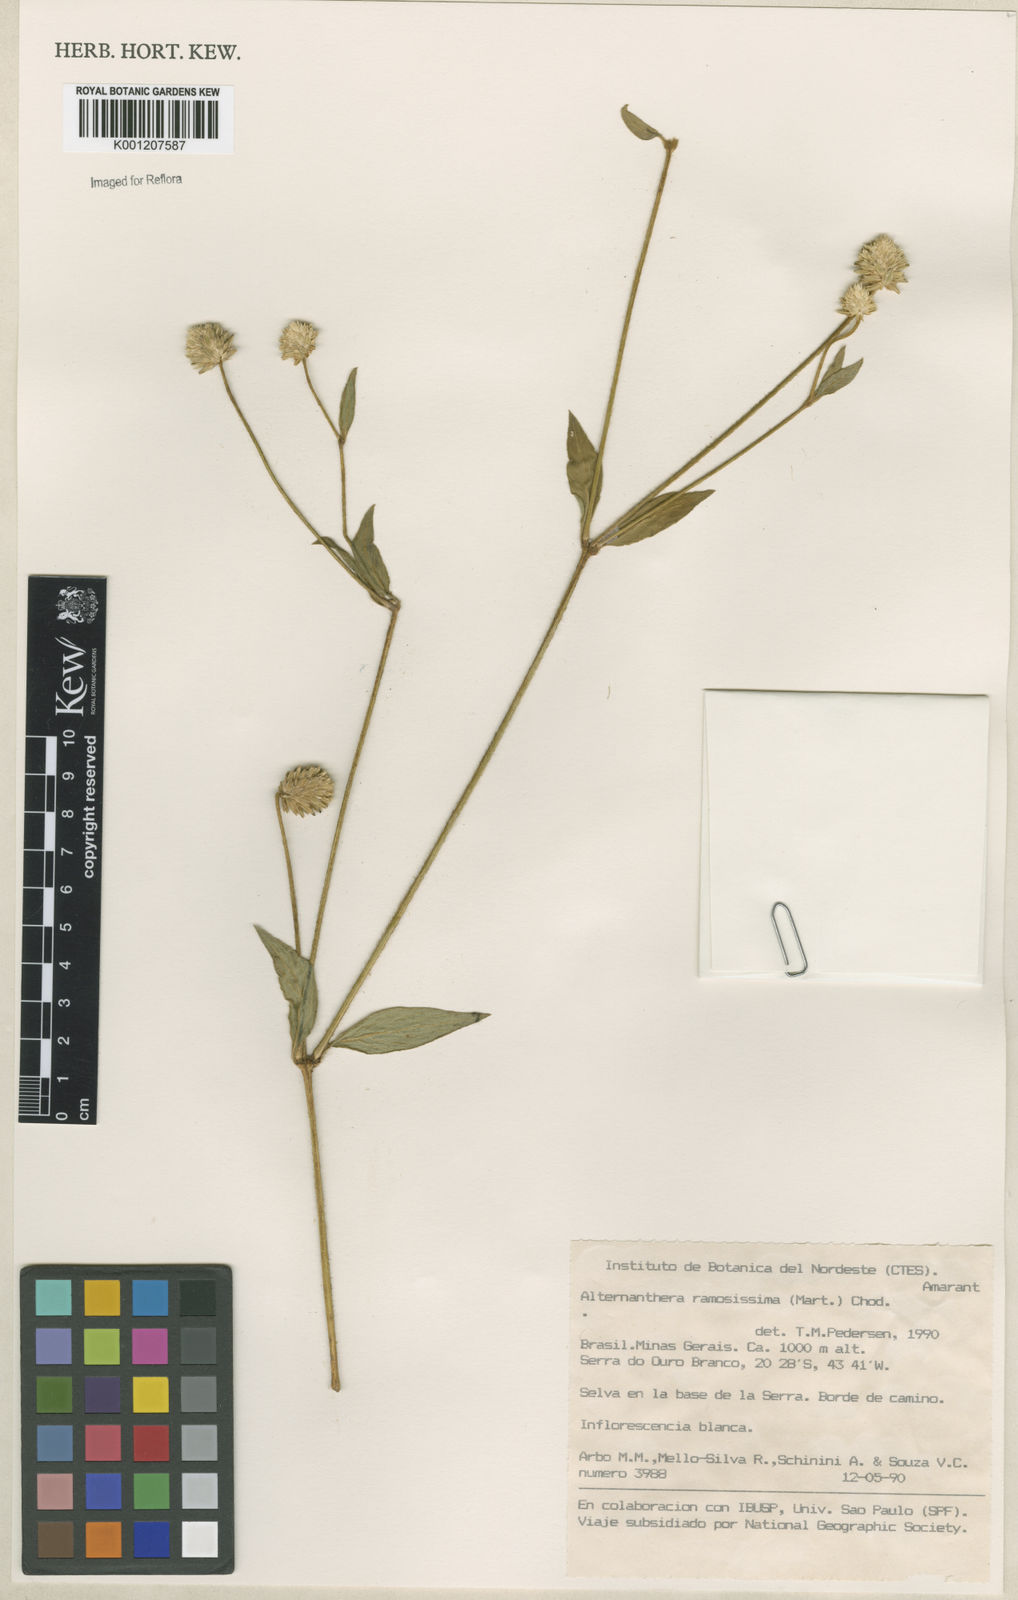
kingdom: Plantae
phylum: Tracheophyta
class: Magnoliopsida
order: Caryophyllales
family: Amaranthaceae
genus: Alternanthera
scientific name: Alternanthera ramosissima
